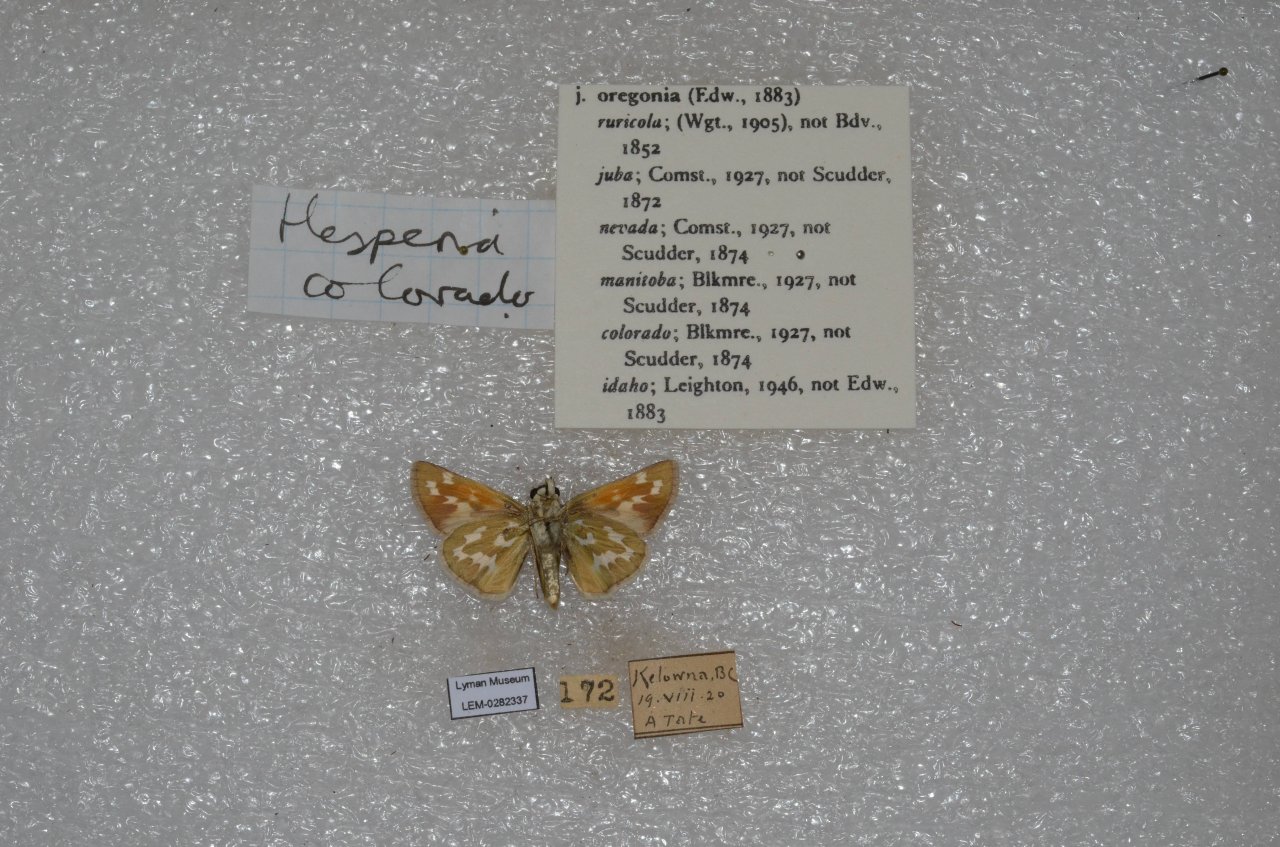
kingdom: Animalia
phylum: Arthropoda
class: Insecta
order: Lepidoptera
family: Hesperiidae
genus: Hesperia
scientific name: Hesperia comma
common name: Western Branded Skipper
